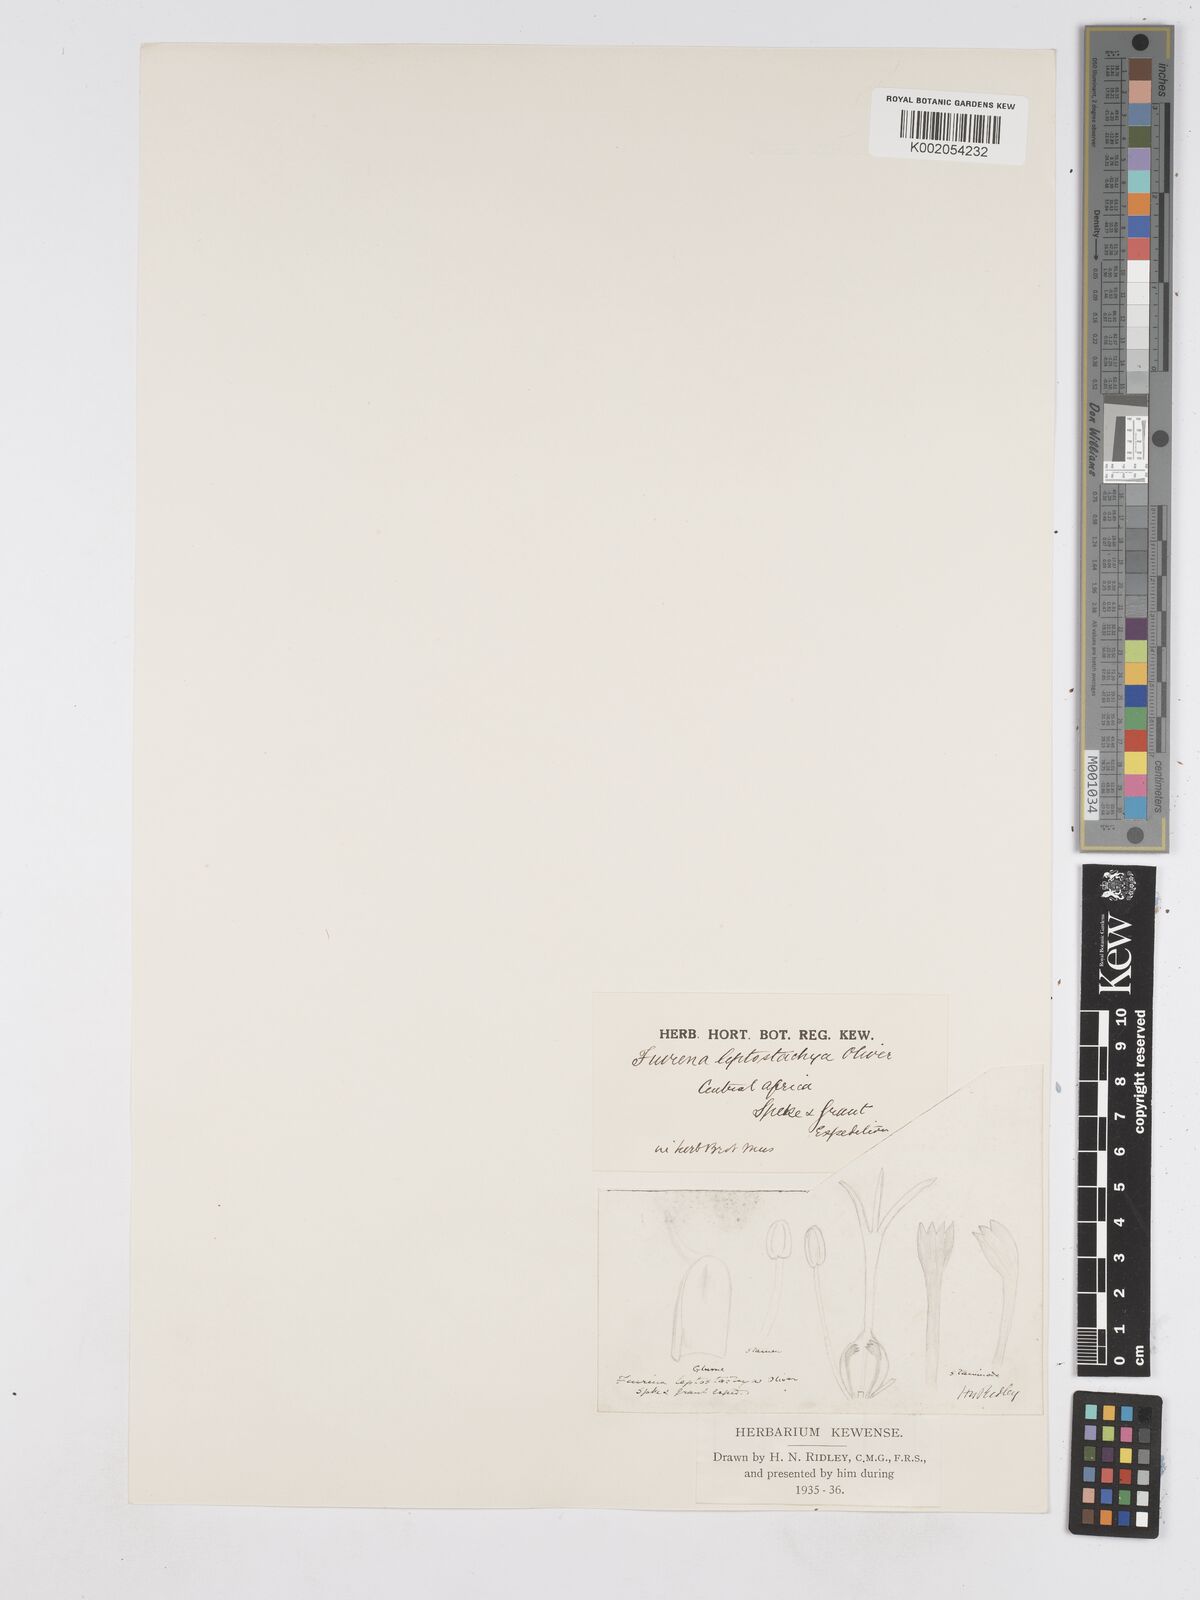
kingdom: Plantae
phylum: Tracheophyta
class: Liliopsida
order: Poales
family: Cyperaceae
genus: Fuirena
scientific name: Fuirena leptostachya
